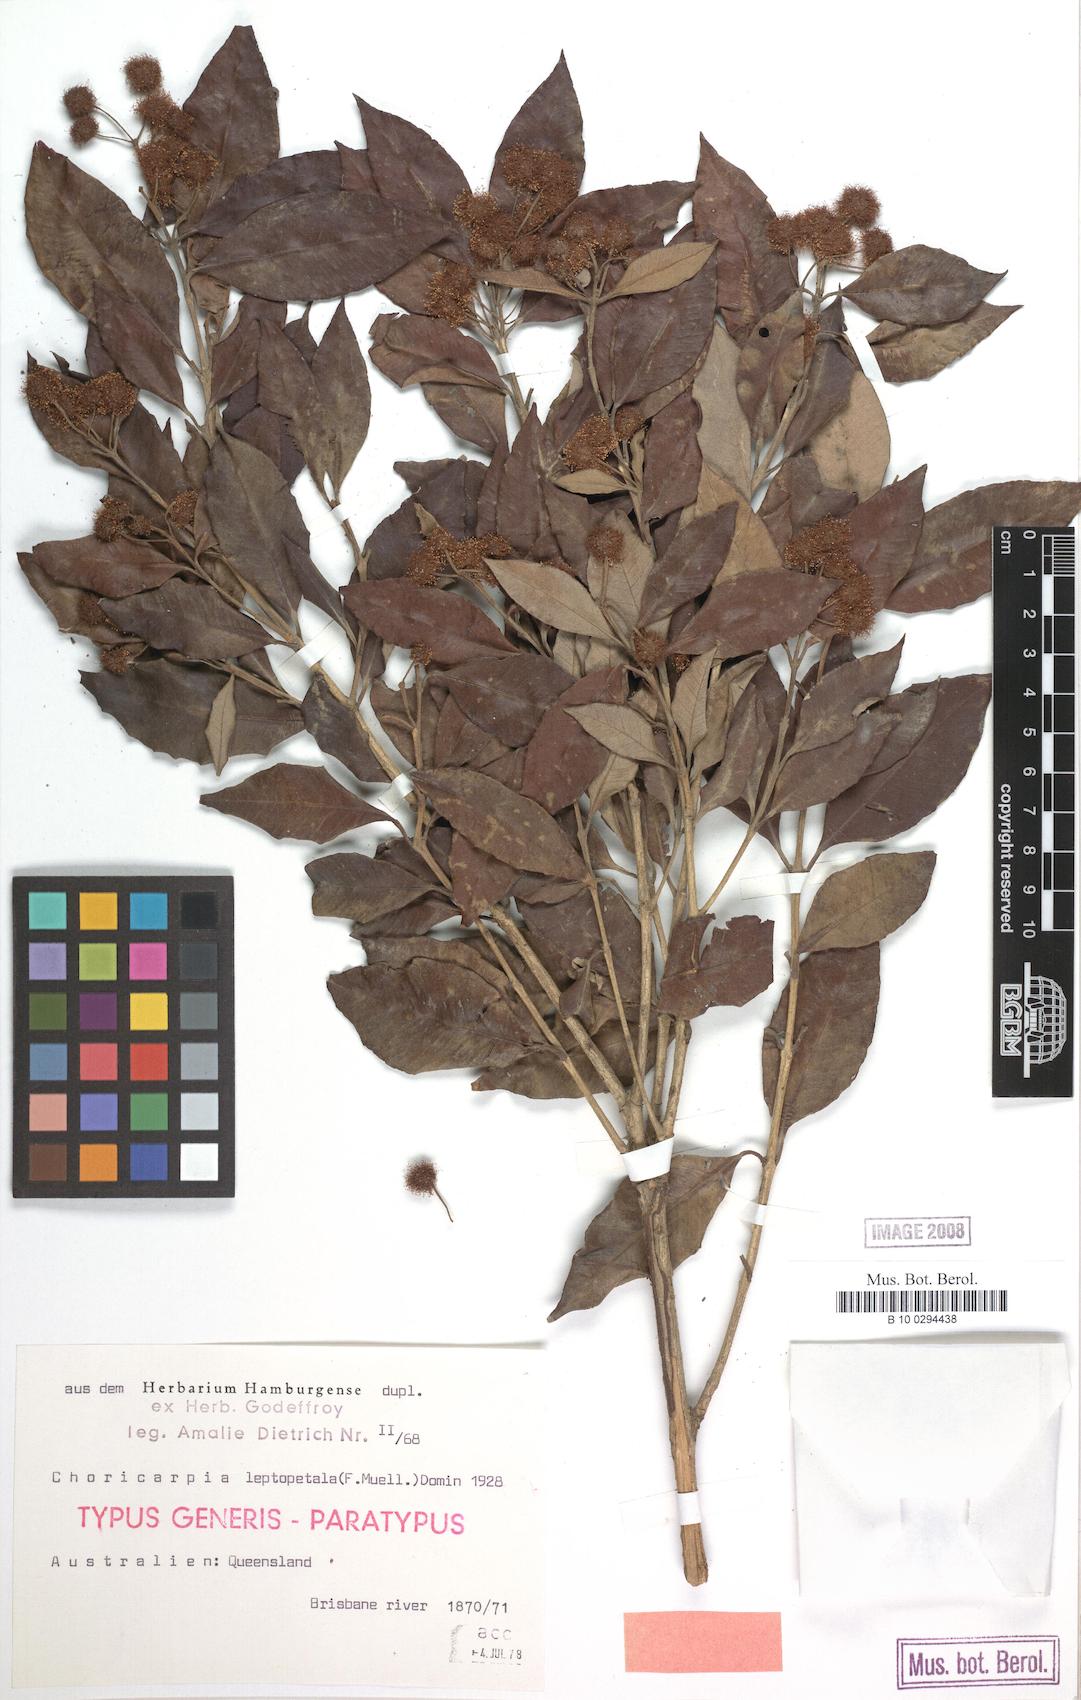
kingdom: Plantae
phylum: Tracheophyta
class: Magnoliopsida
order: Myrtales
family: Myrtaceae
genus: Backhousia
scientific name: Backhousia leptopetala
